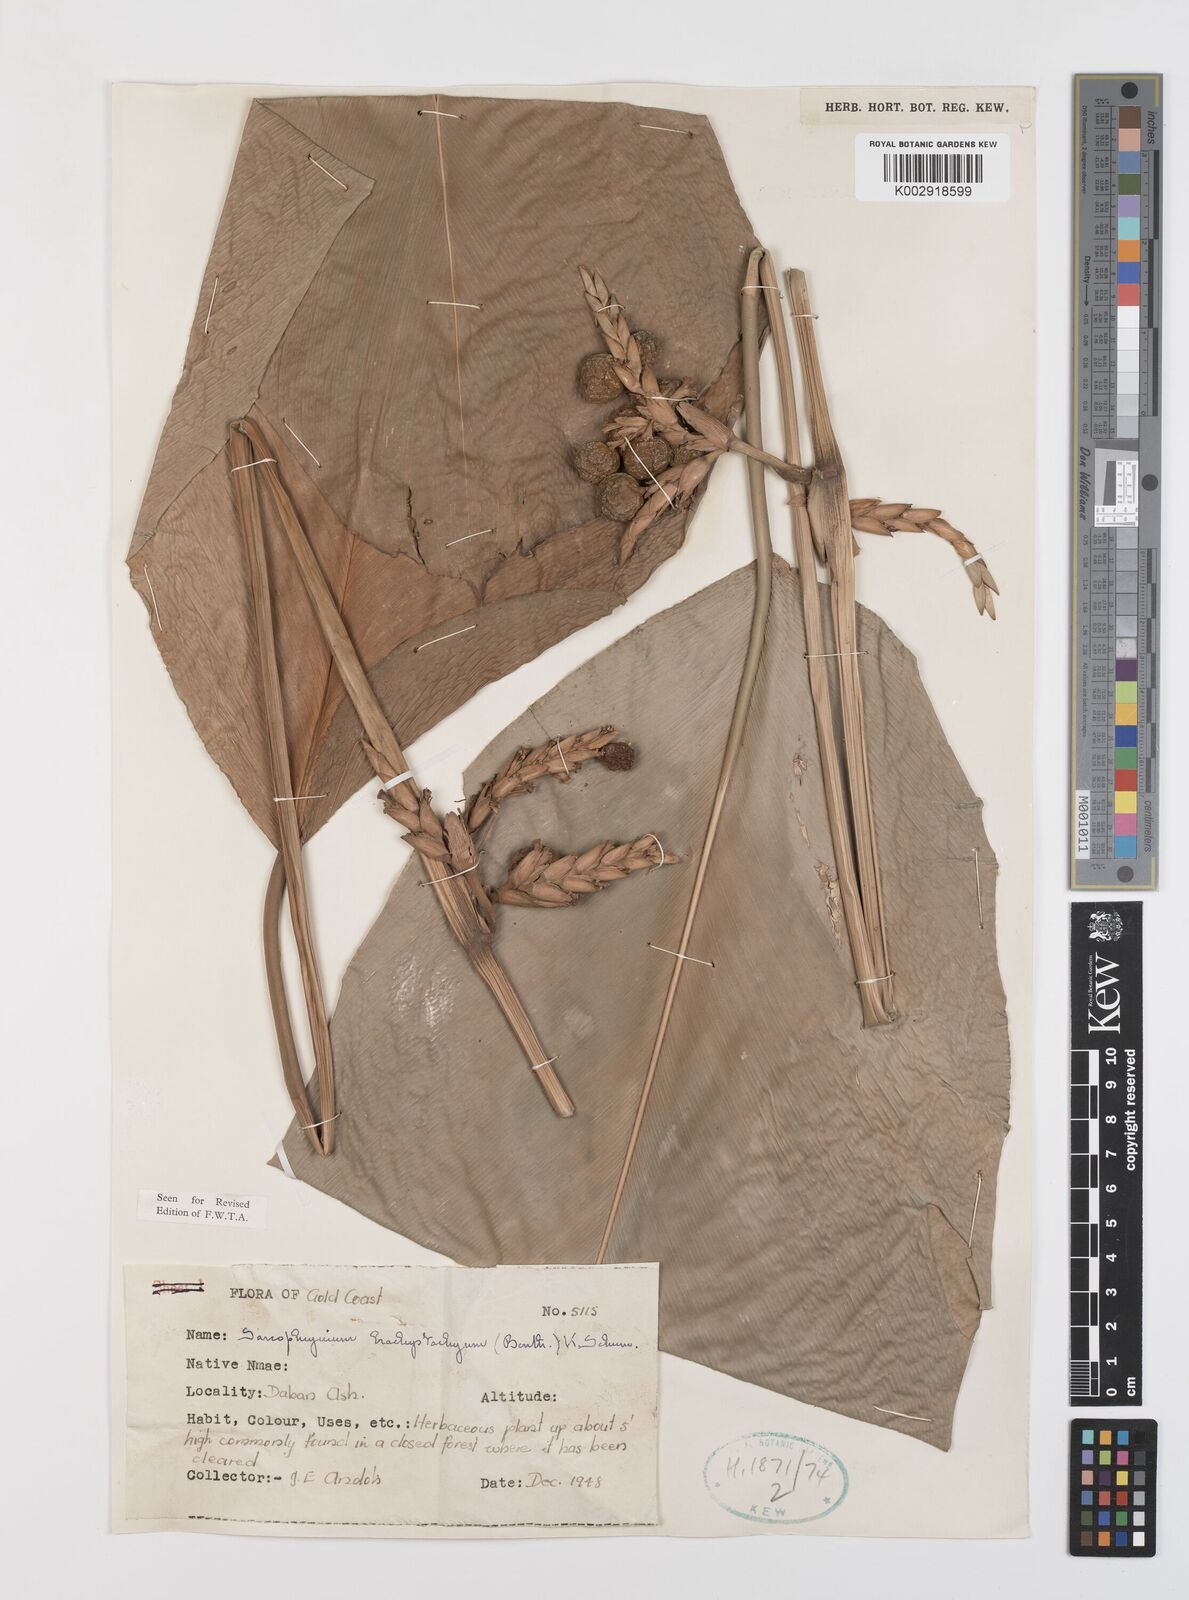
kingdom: Plantae
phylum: Tracheophyta
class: Liliopsida
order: Zingiberales
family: Marantaceae
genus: Sarcophrynium
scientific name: Sarcophrynium brachystachyum
